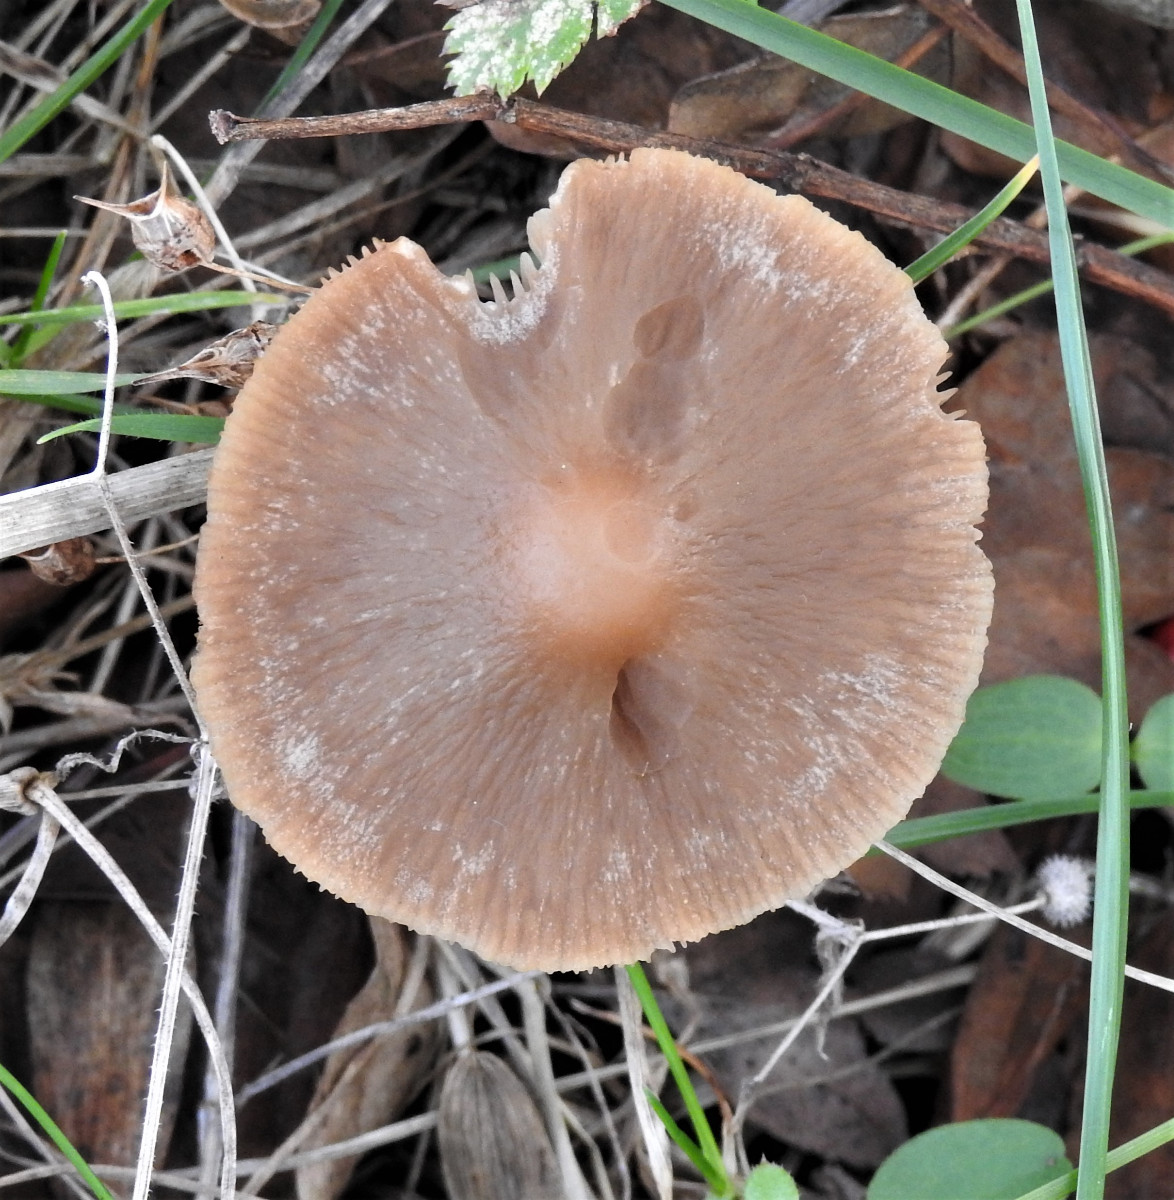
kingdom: Fungi
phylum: Basidiomycota
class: Agaricomycetes
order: Agaricales
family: Psathyrellaceae
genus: Psathyrella
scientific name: Psathyrella
